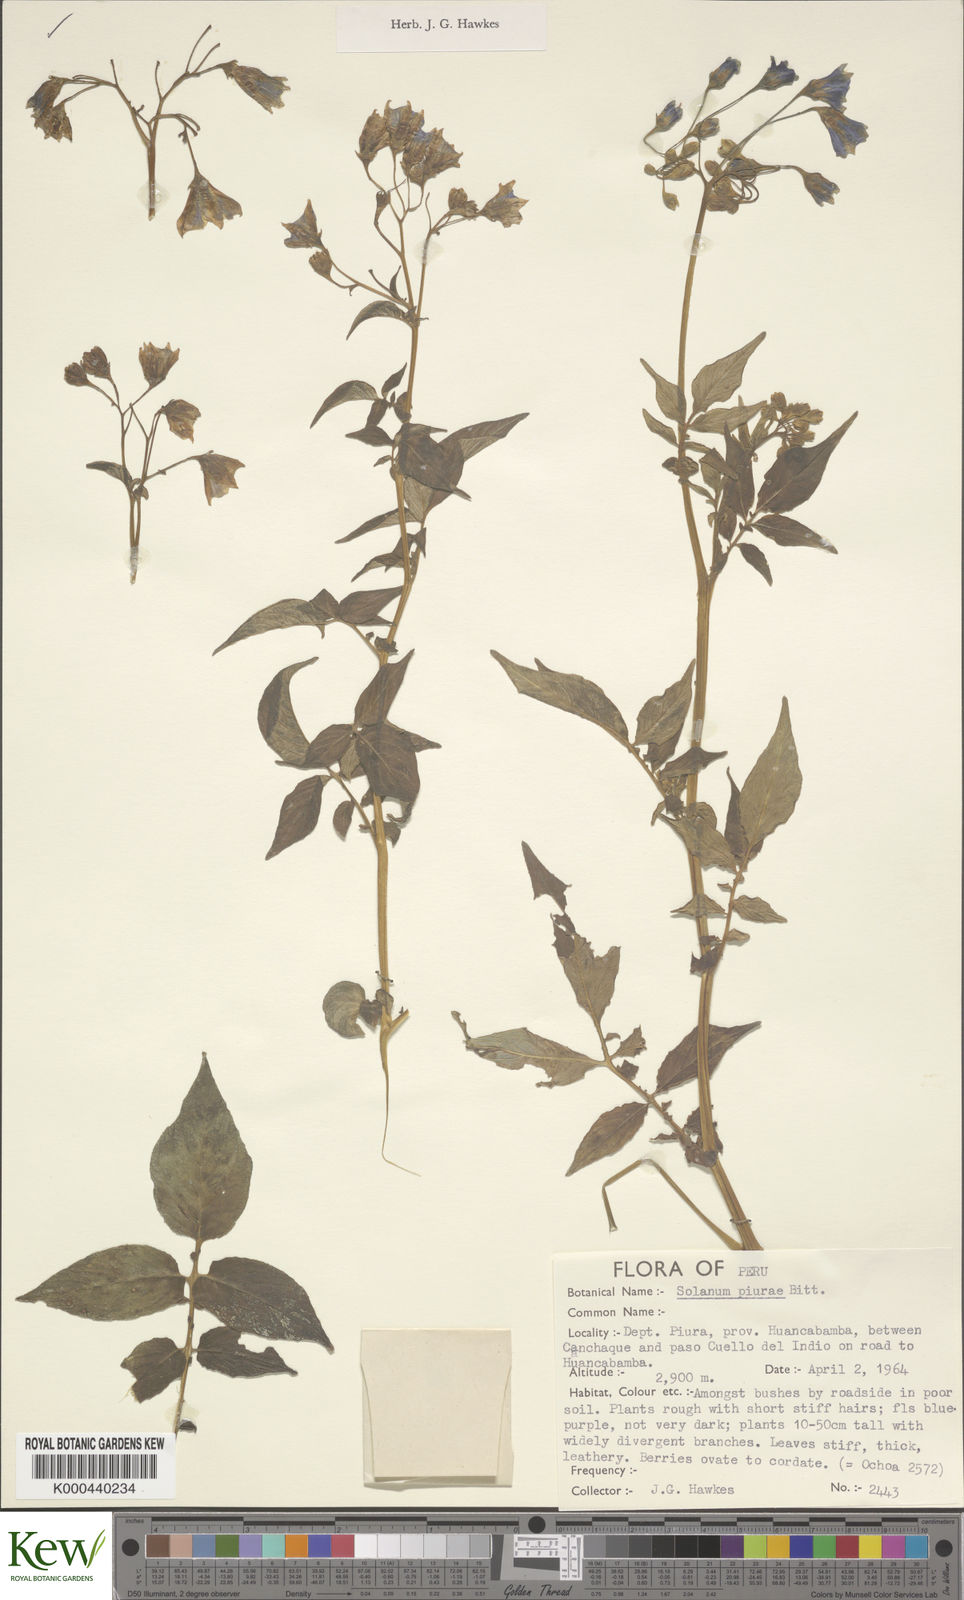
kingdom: Plantae
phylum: Tracheophyta
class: Magnoliopsida
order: Solanales
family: Solanaceae
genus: Solanum
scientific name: Solanum piurae
